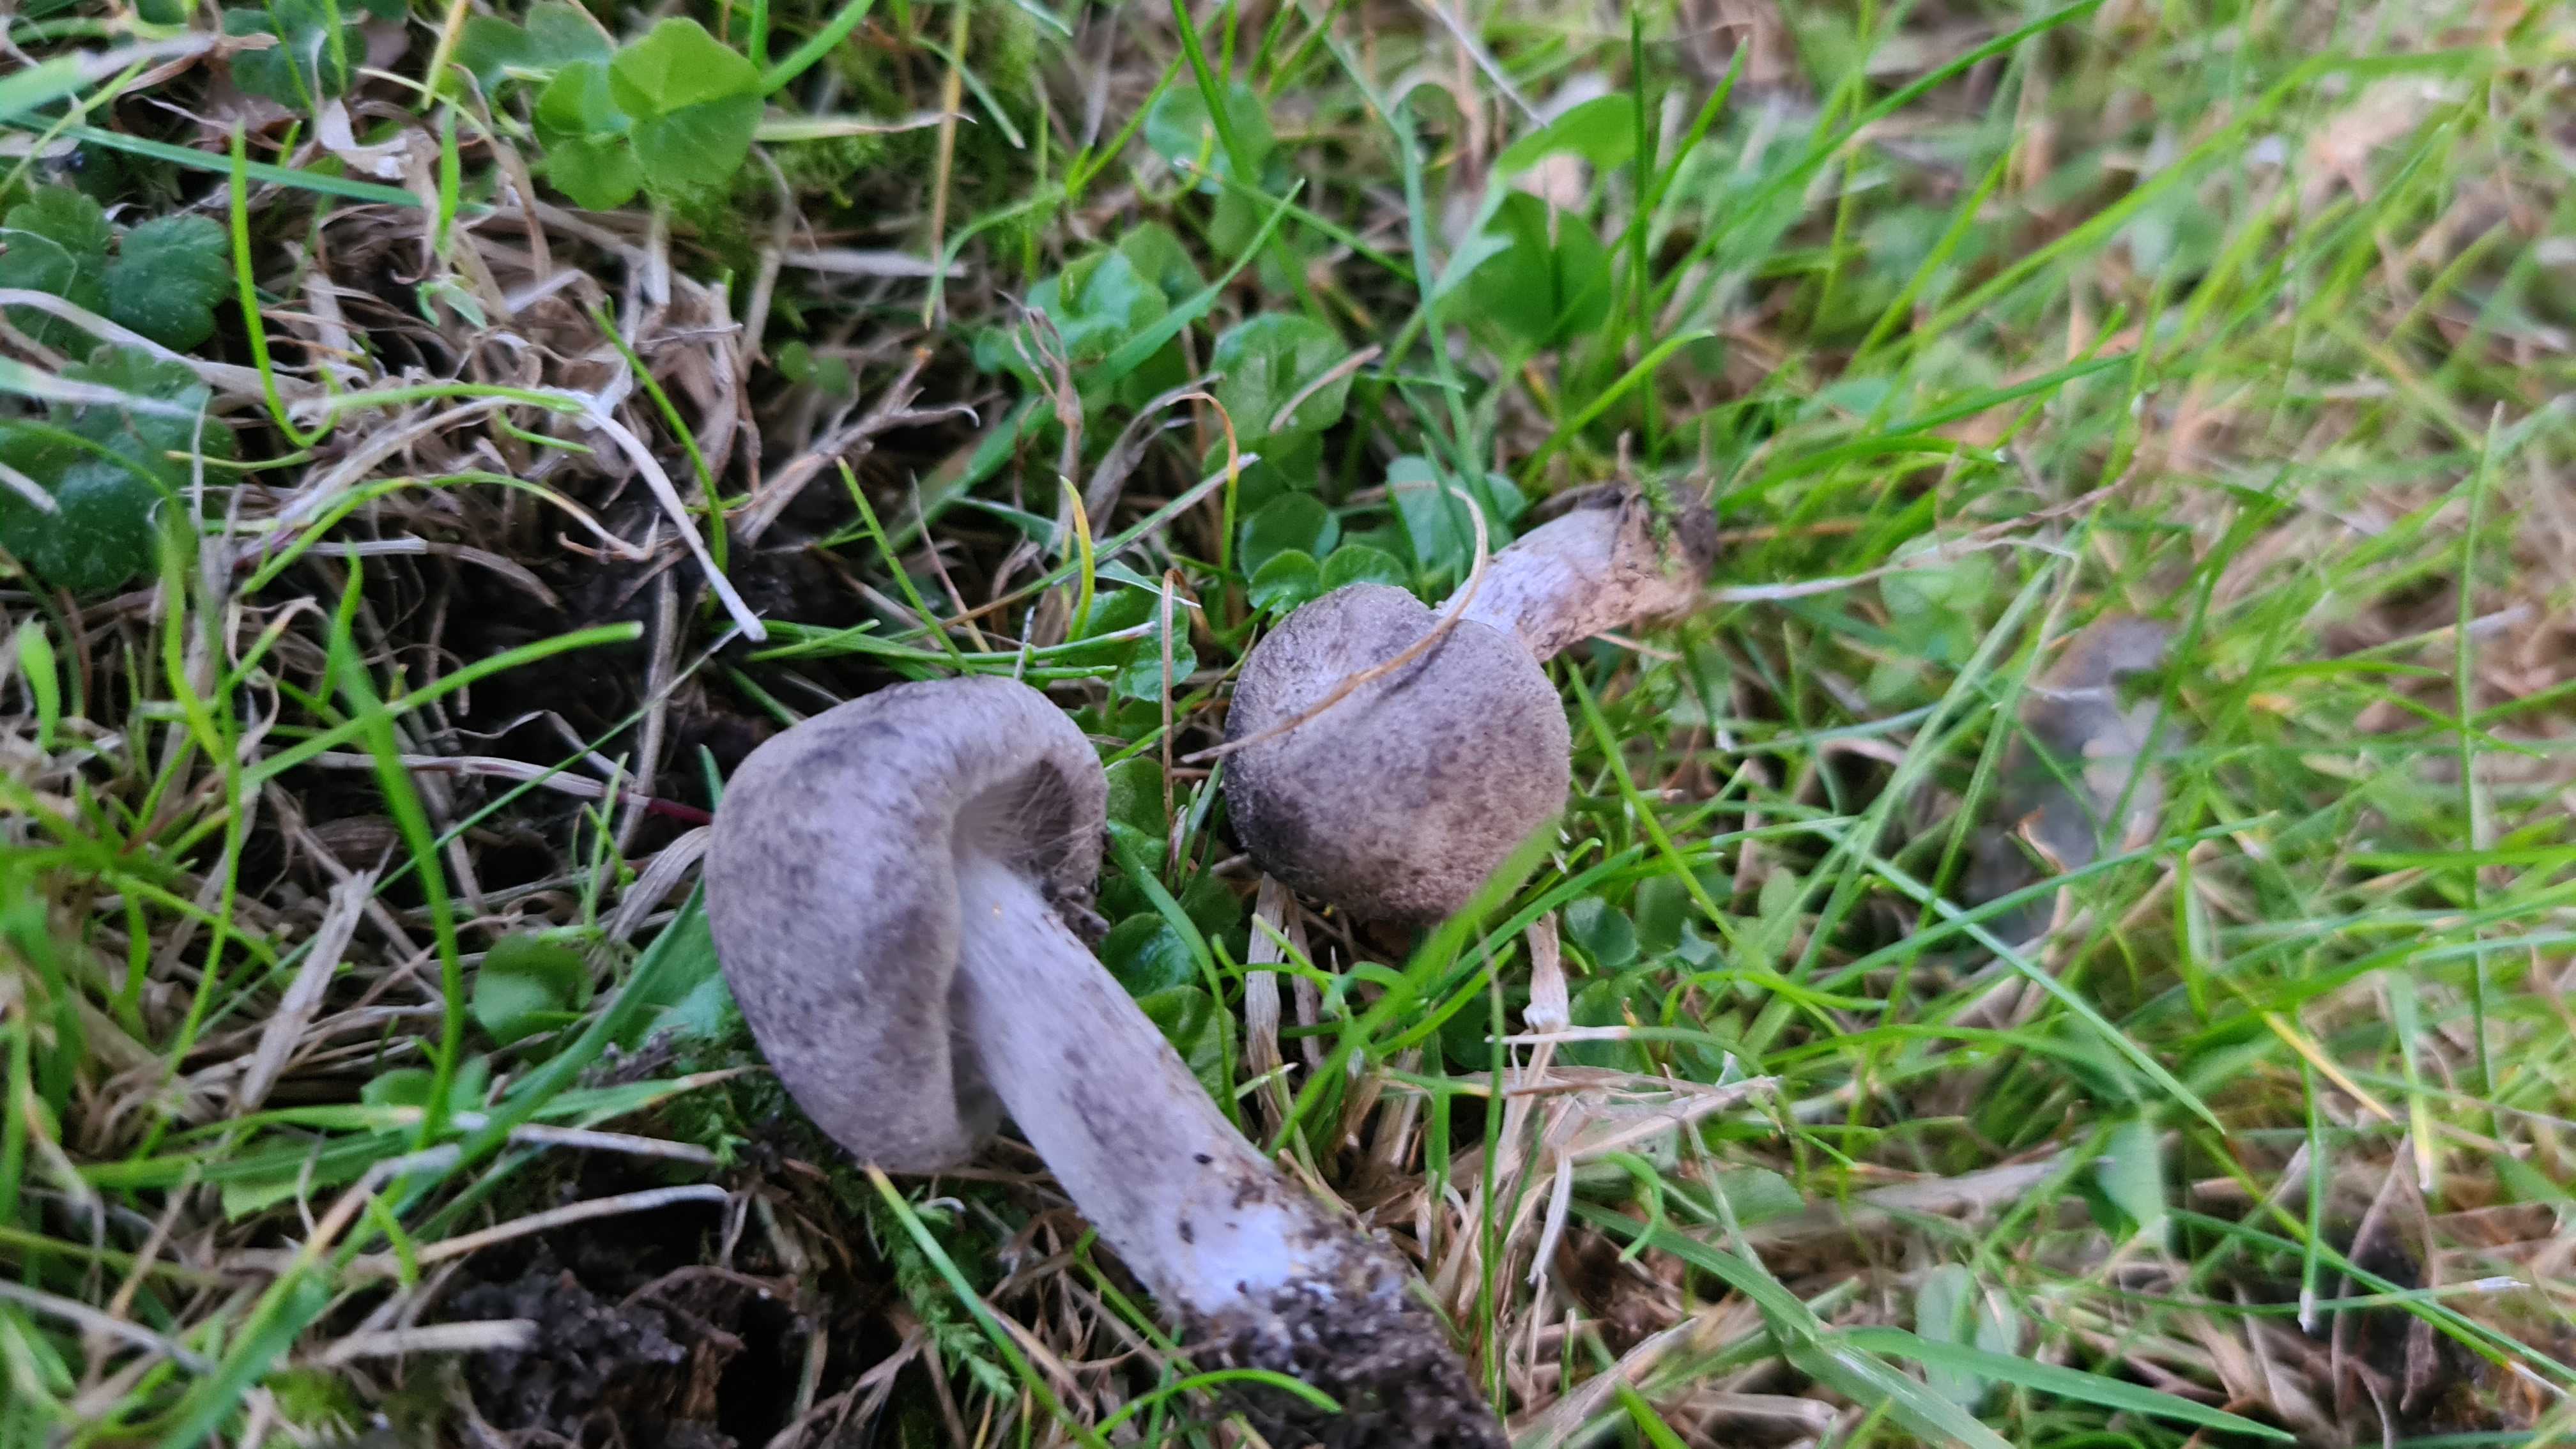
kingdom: Fungi
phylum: Basidiomycota
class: Agaricomycetes
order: Agaricales
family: Tricholomataceae
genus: Tricholoma
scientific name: Tricholoma argyraceum
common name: slør-ridderhat
